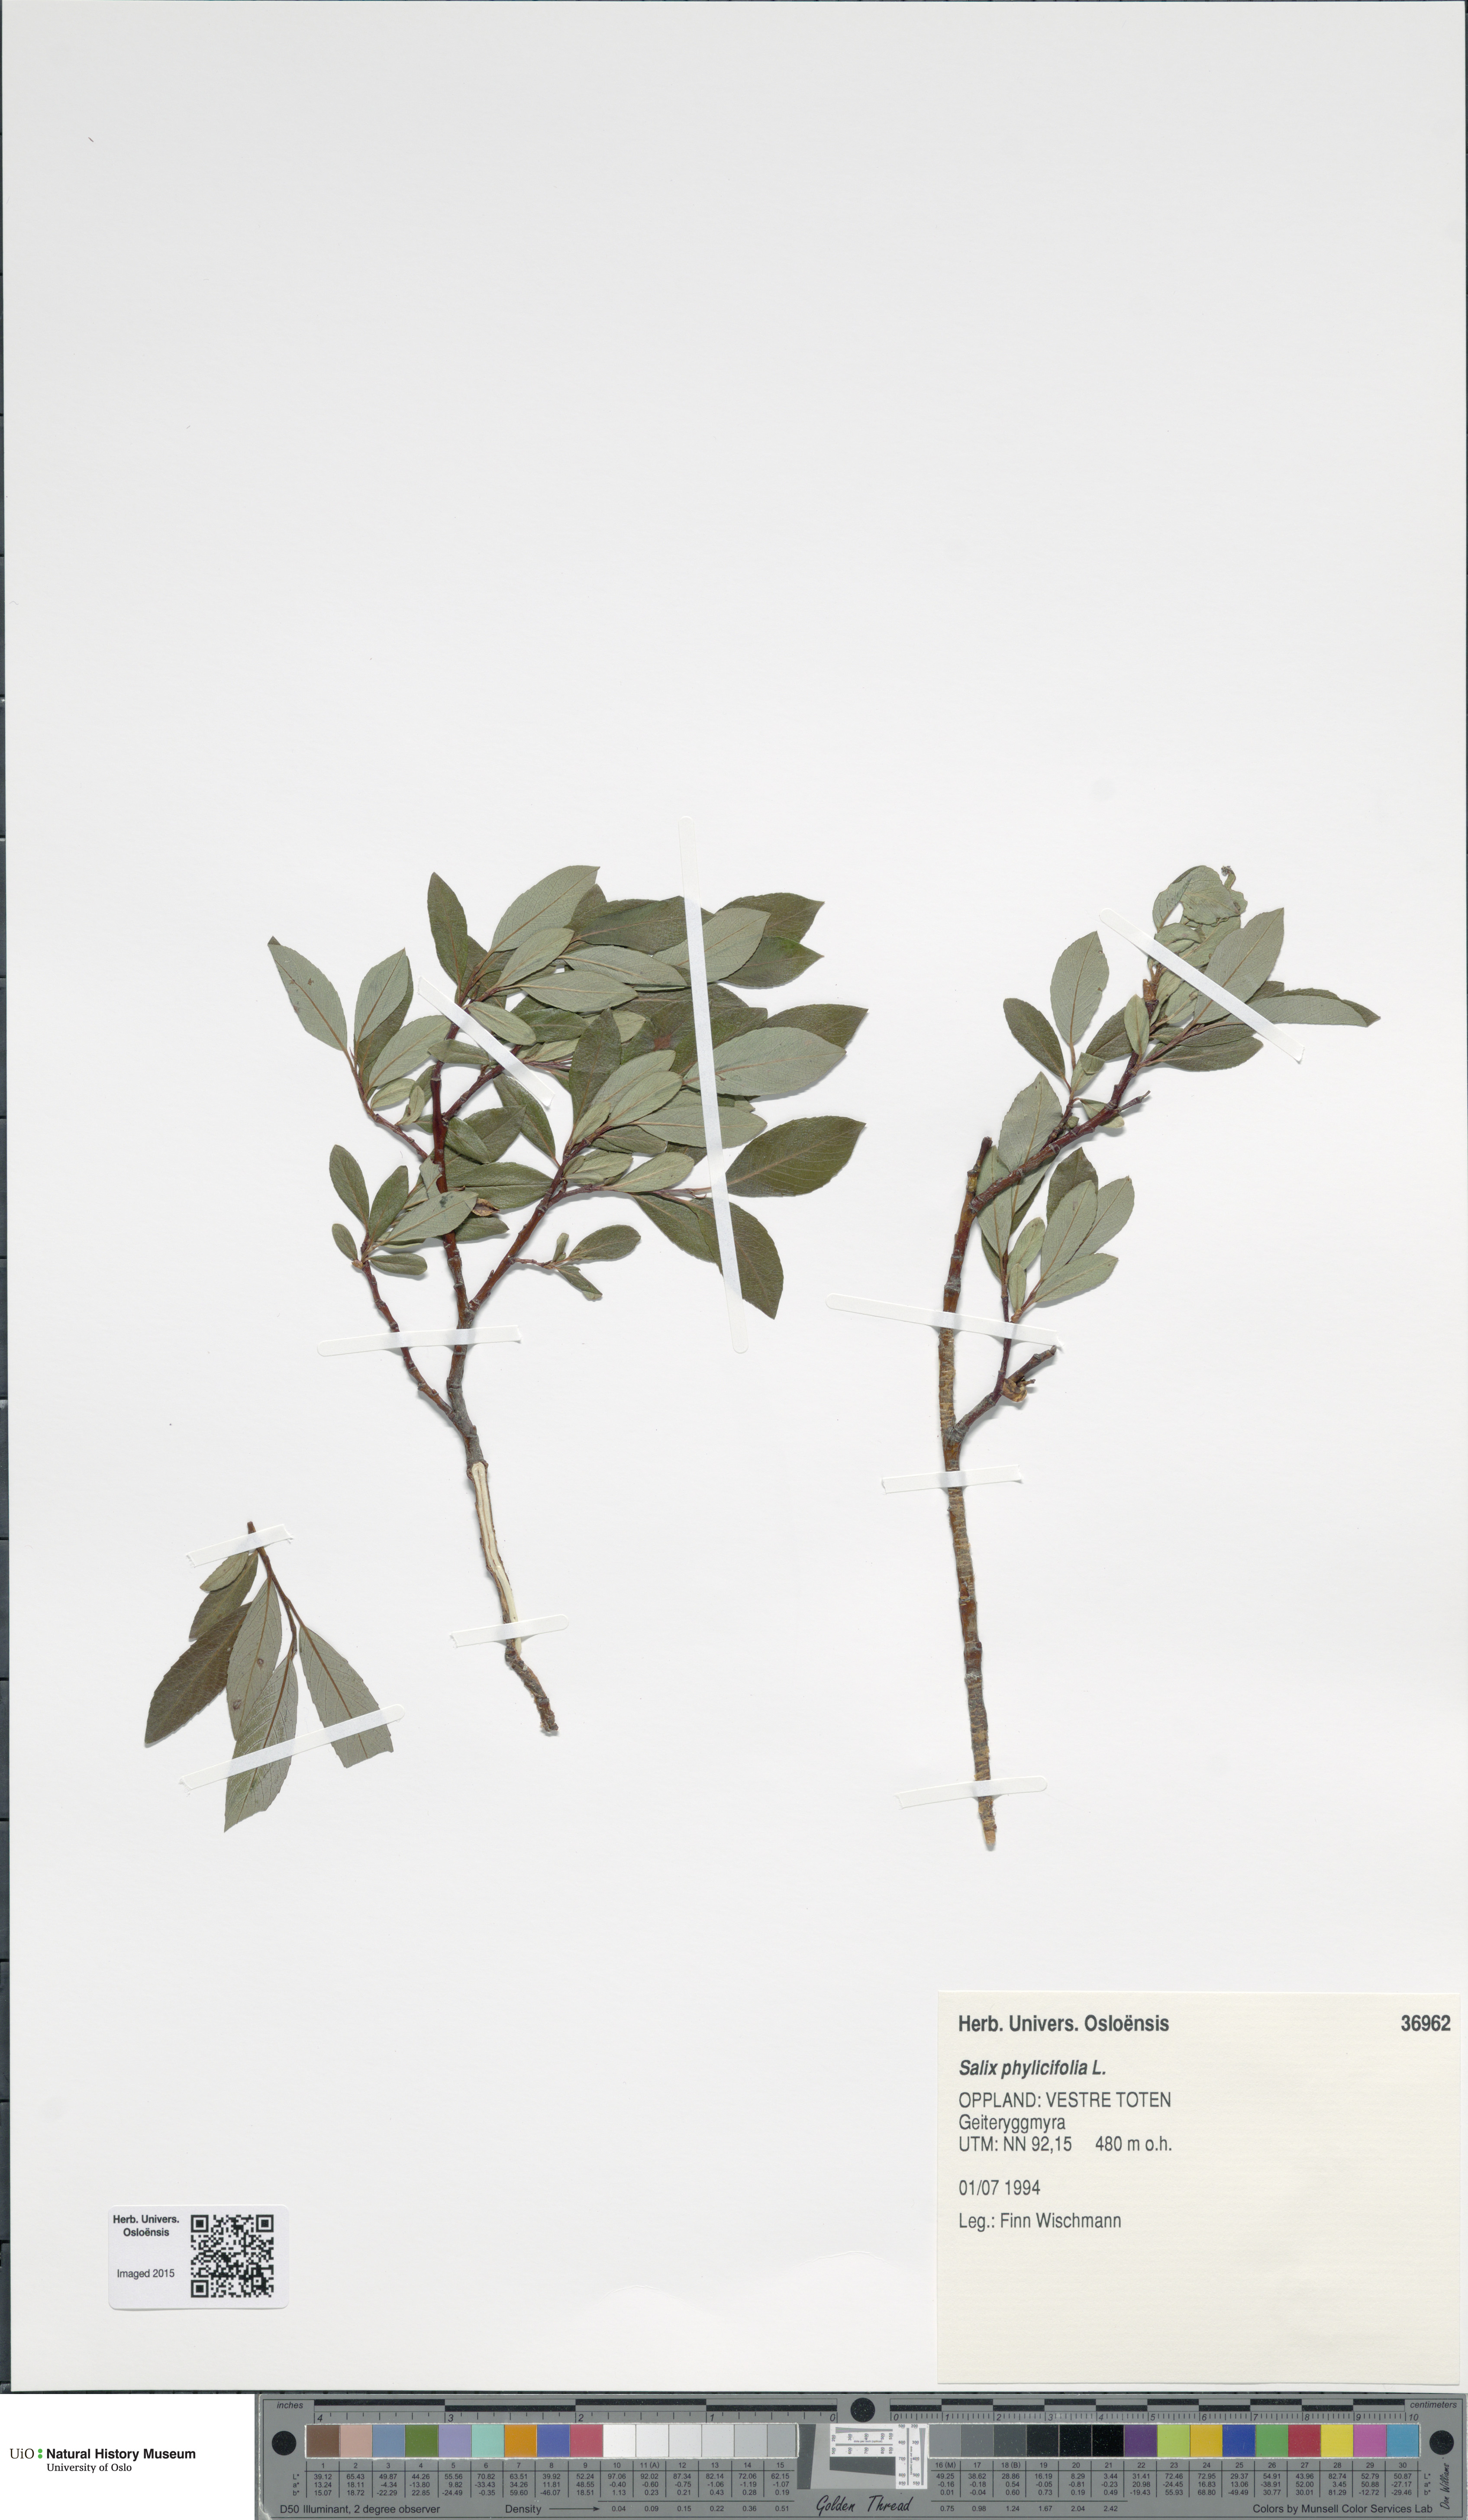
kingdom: Plantae
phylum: Tracheophyta
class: Magnoliopsida
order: Malpighiales
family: Salicaceae
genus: Salix
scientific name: Salix phylicifolia
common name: Tea-leaved willow
